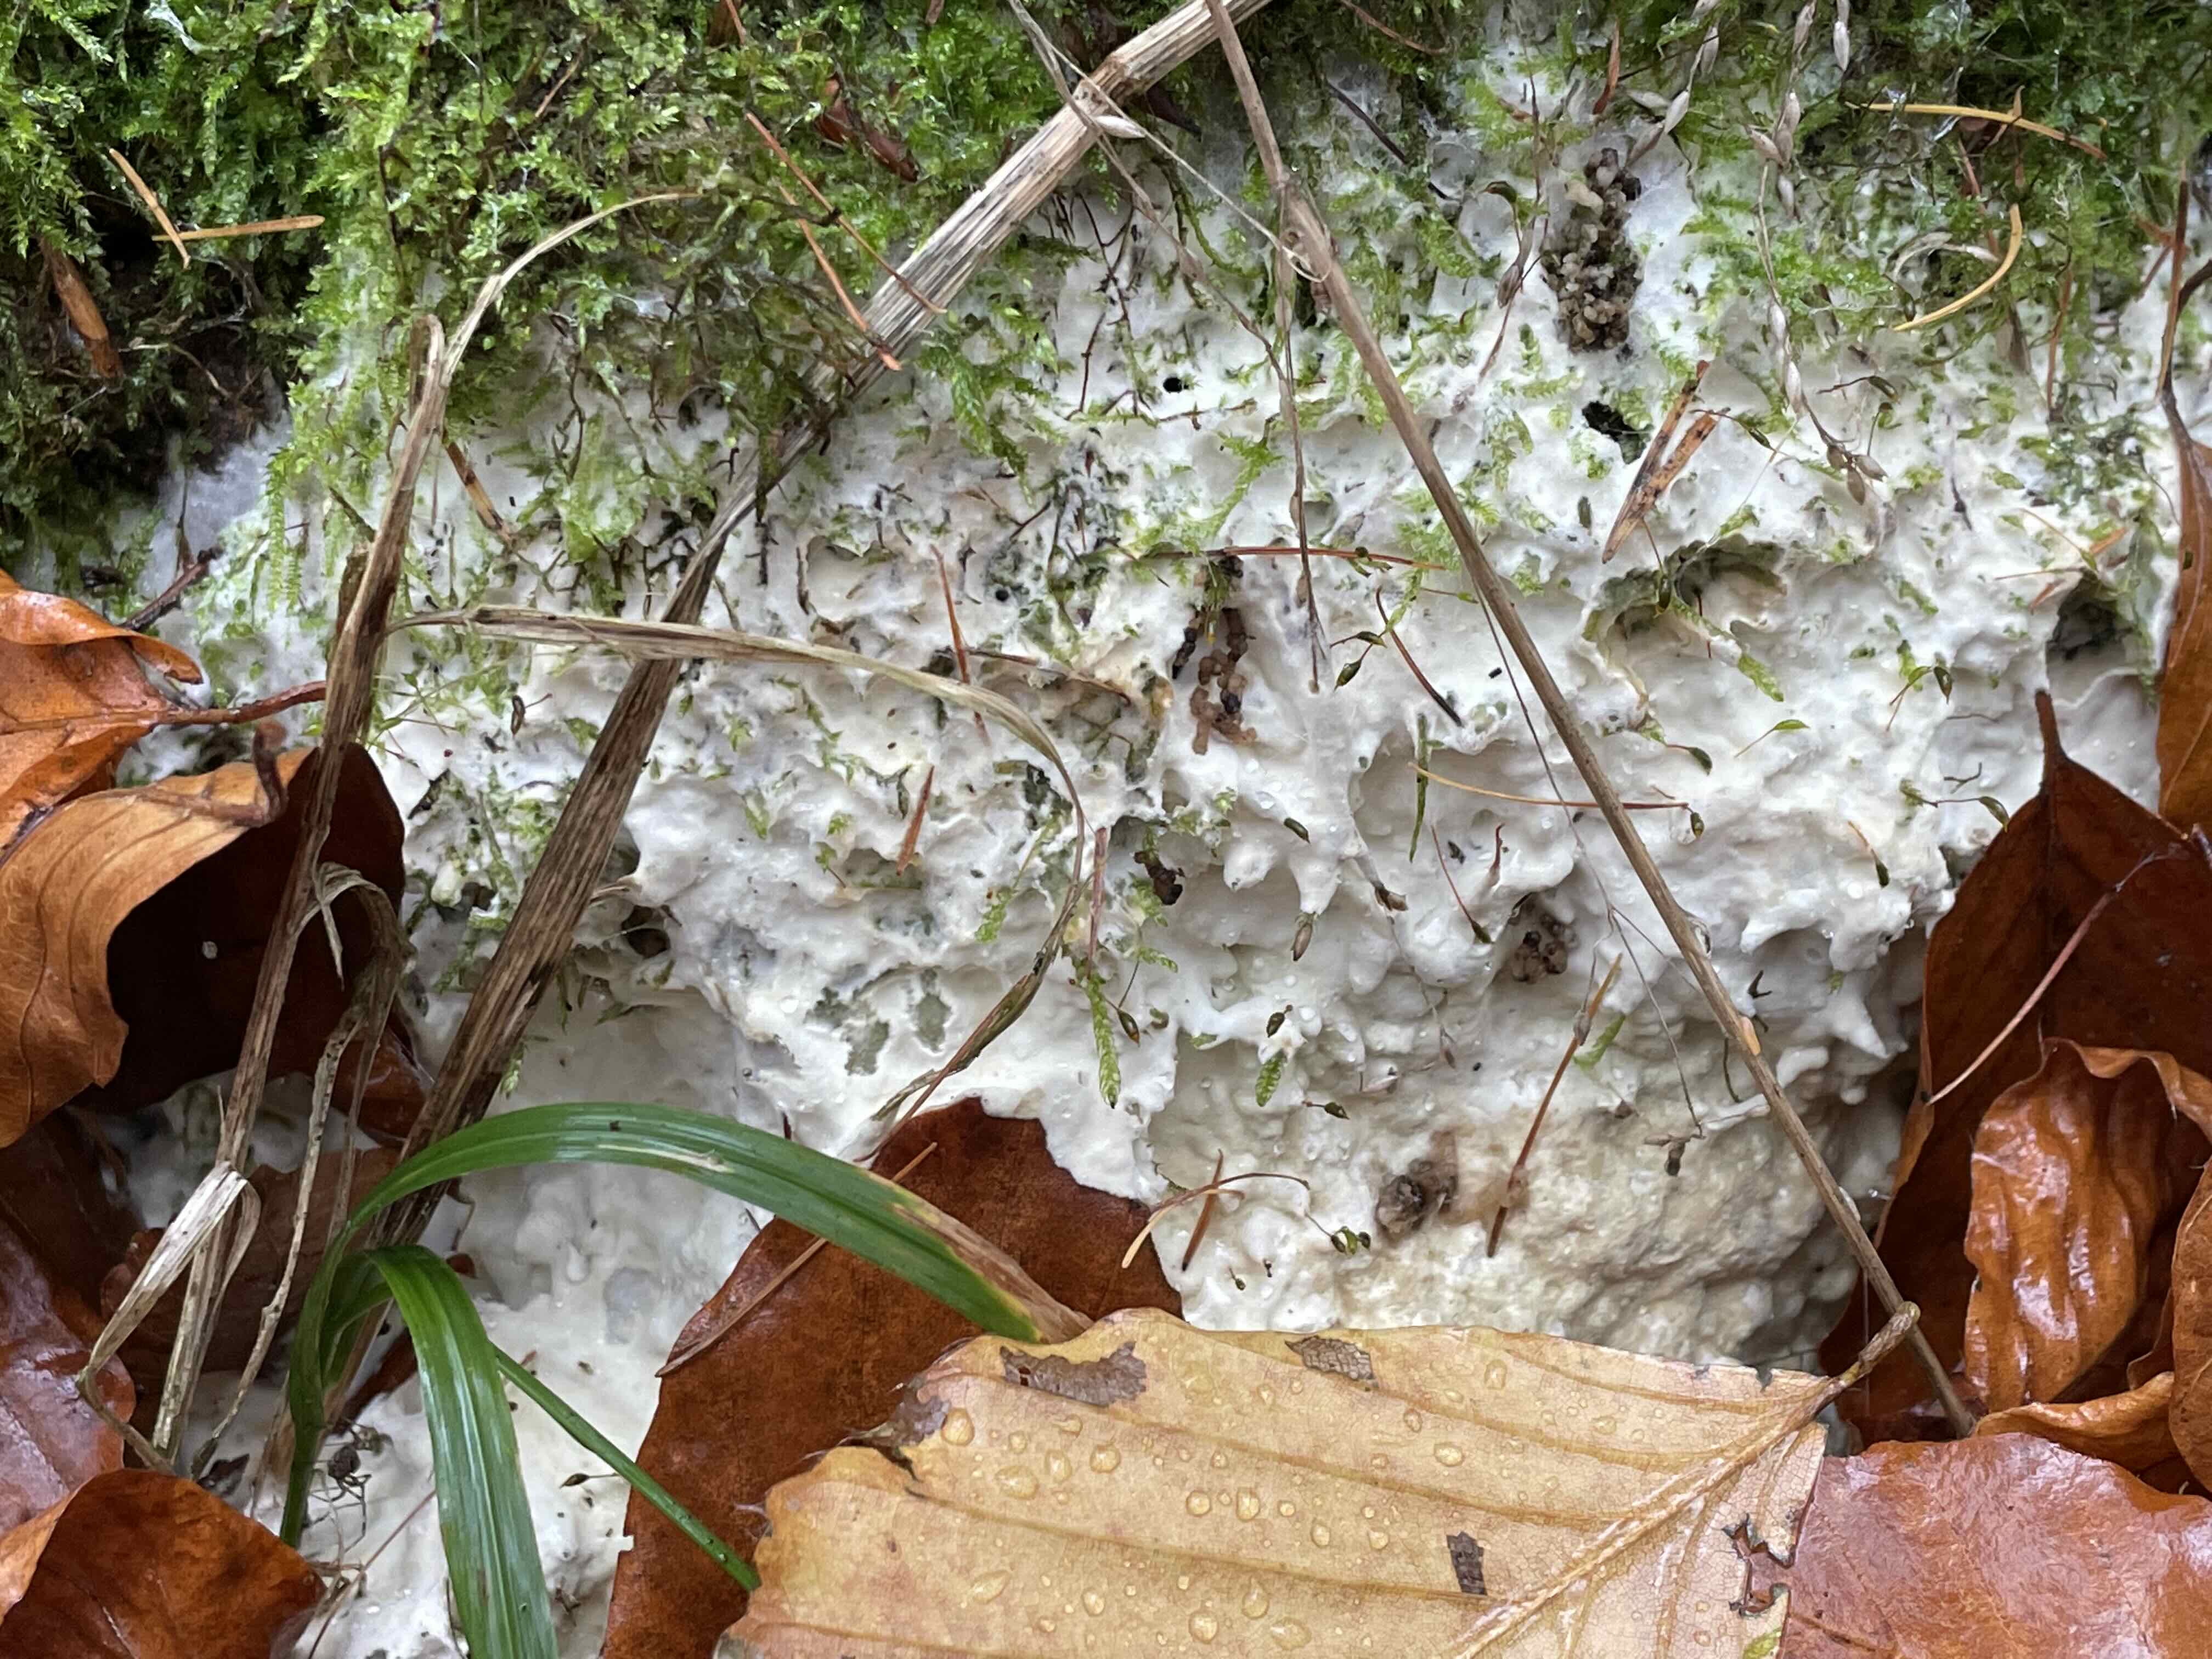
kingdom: Fungi
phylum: Basidiomycota
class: Agaricomycetes
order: Polyporales
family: Meruliaceae
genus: Physisporinus
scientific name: Physisporinus vitreus
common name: mastesvamp
